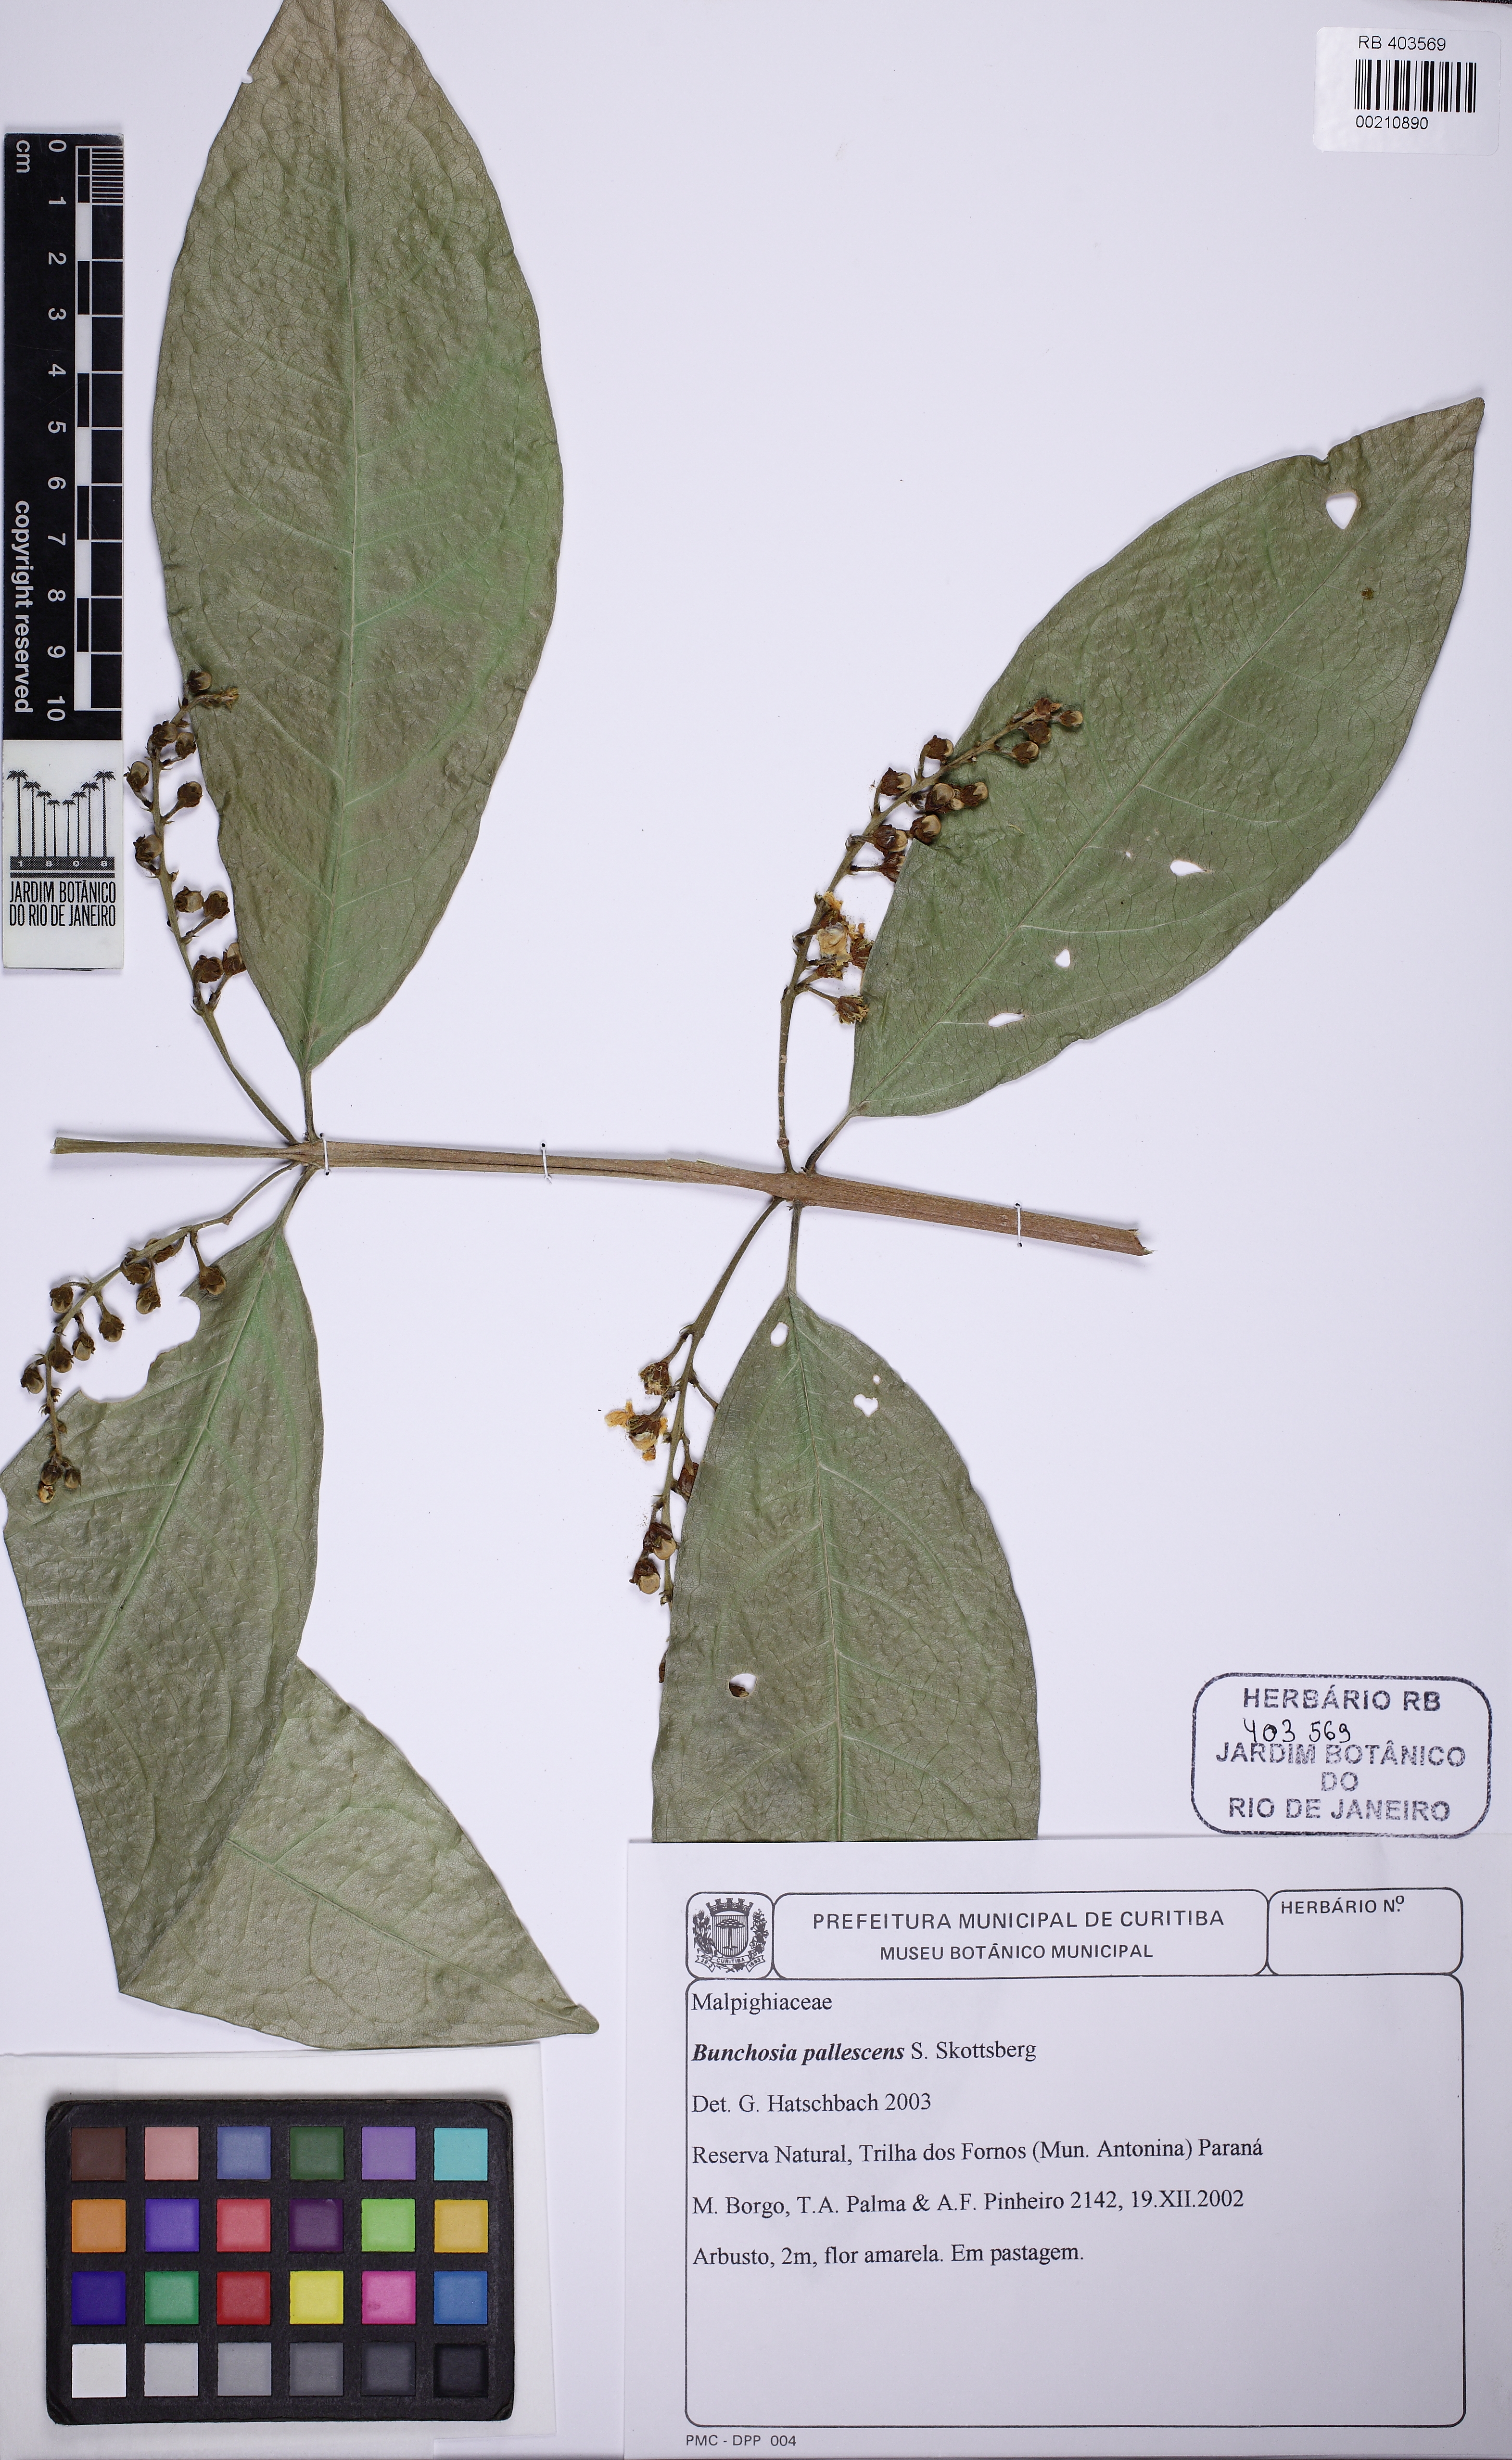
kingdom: Plantae
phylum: Tracheophyta
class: Magnoliopsida
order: Malpighiales
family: Malpighiaceae
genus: Bunchosia
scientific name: Bunchosia pallescens
